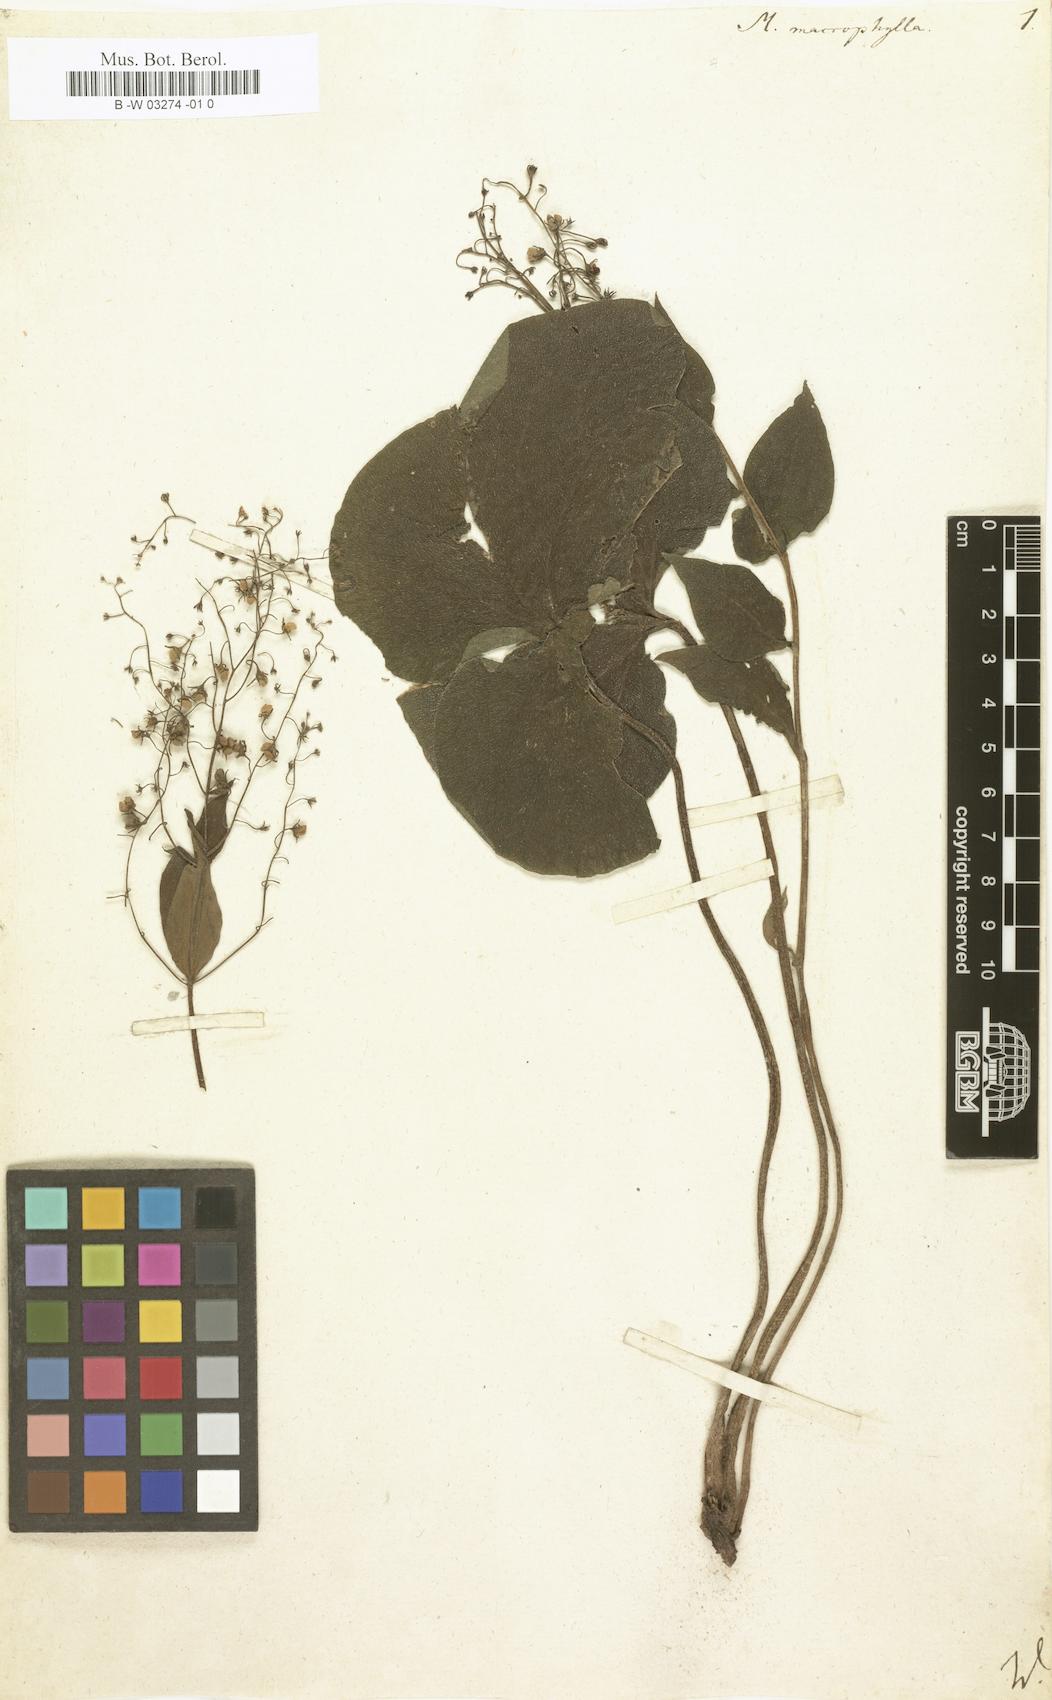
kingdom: Plantae
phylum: Tracheophyta
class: Magnoliopsida
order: Boraginales
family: Boraginaceae
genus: Brunnera
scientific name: Brunnera macrophylla
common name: Great forget-me-not
